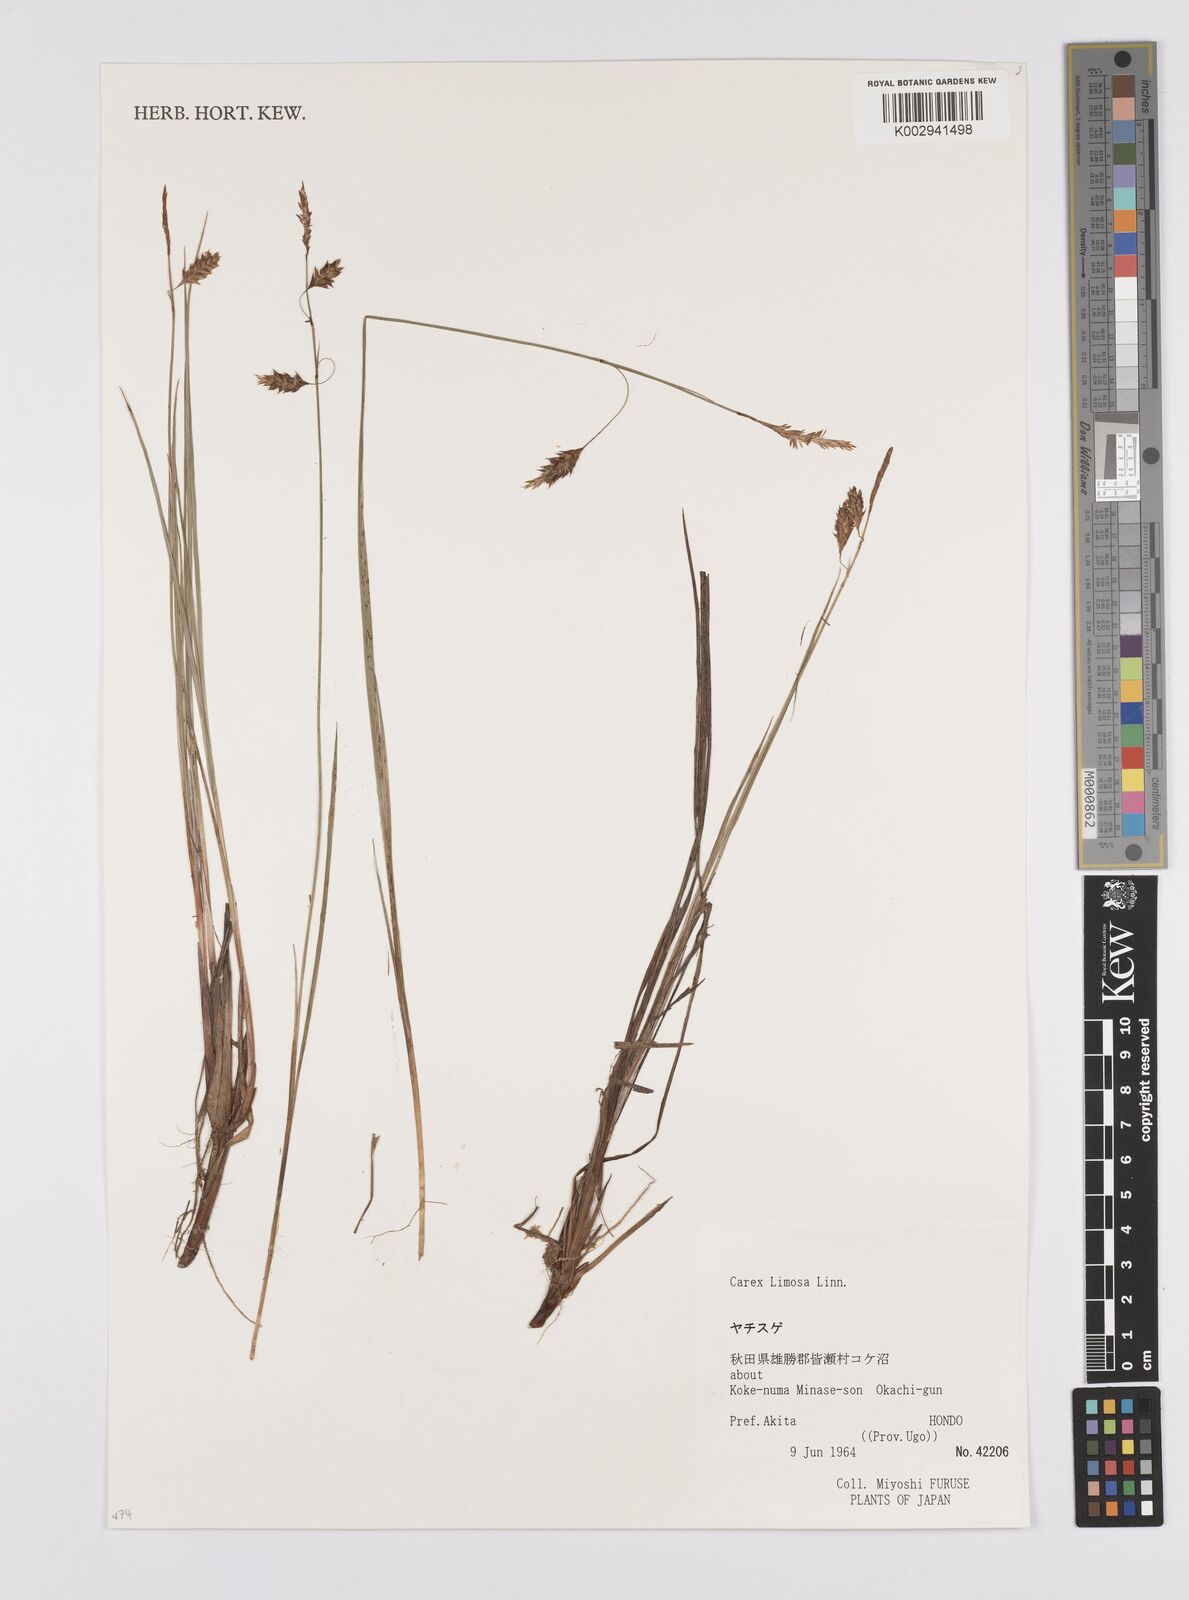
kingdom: Plantae
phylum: Tracheophyta
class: Liliopsida
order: Poales
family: Cyperaceae
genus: Carex
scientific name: Carex limosa
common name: Bog sedge
